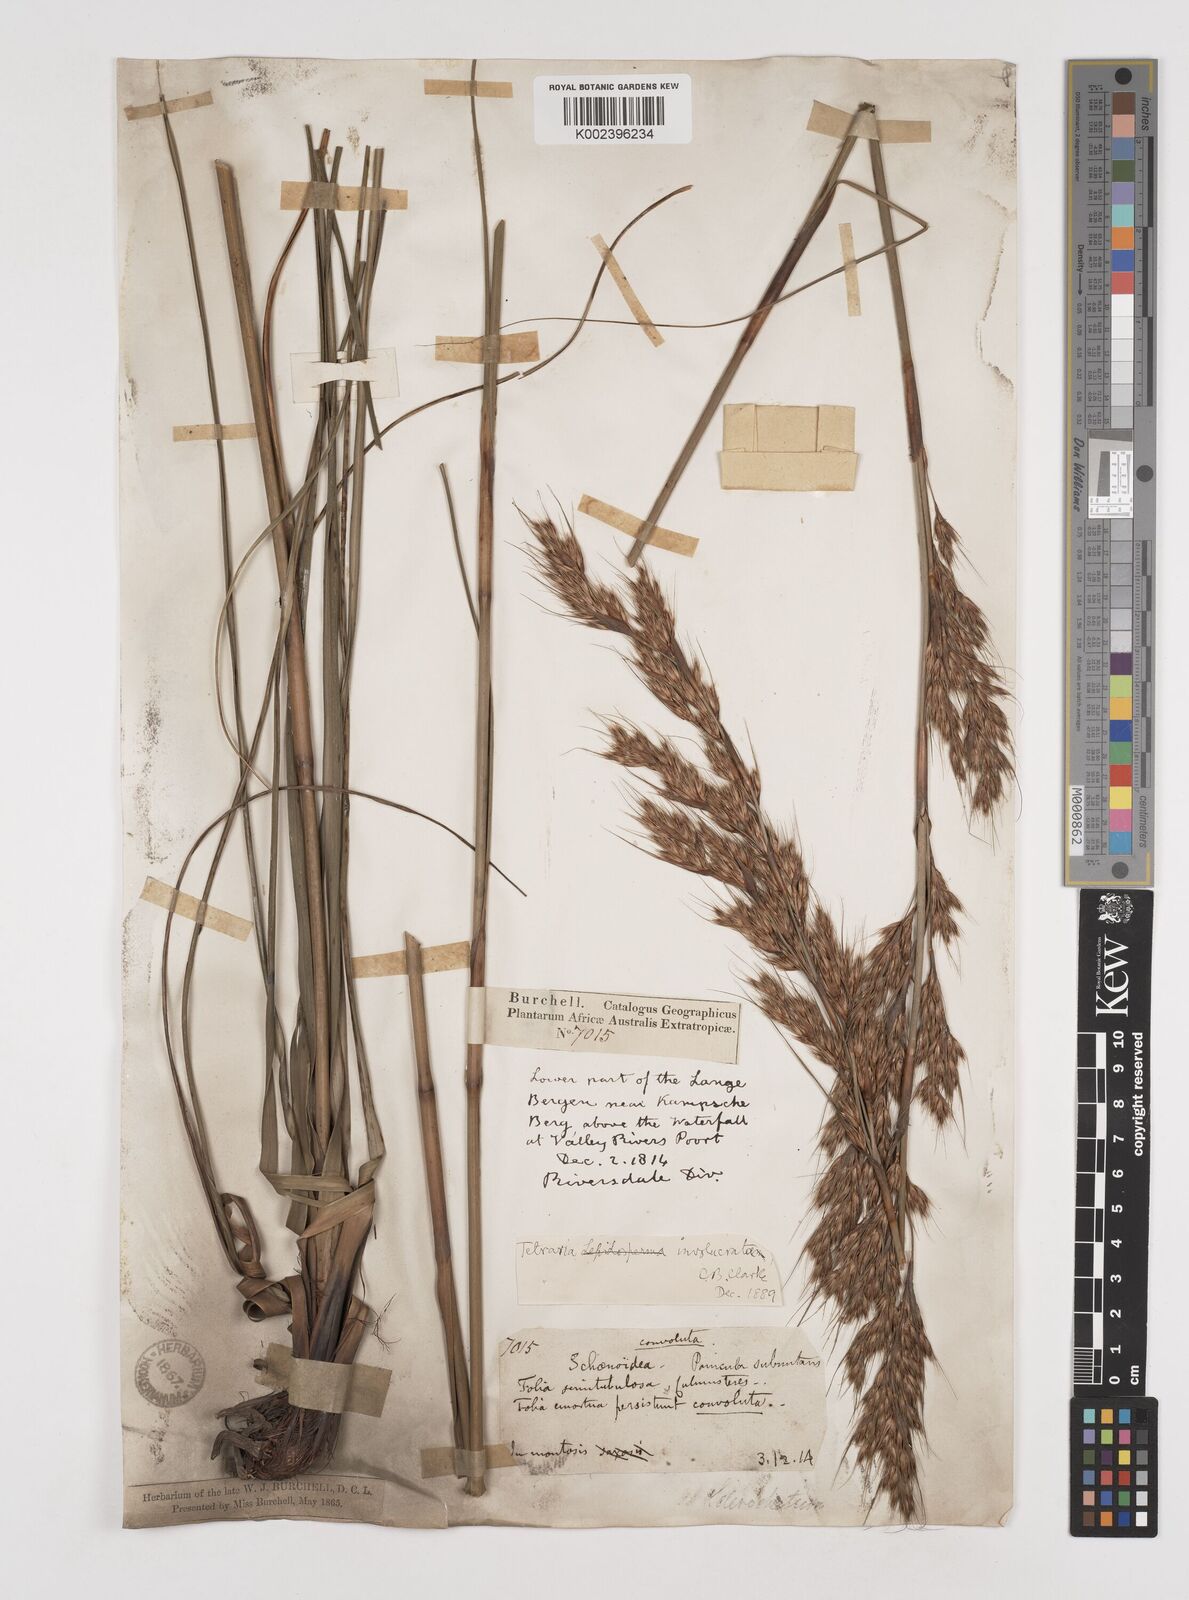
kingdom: Plantae
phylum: Tracheophyta
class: Liliopsida
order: Poales
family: Cyperaceae
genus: Tetraria
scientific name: Tetraria involucrata
